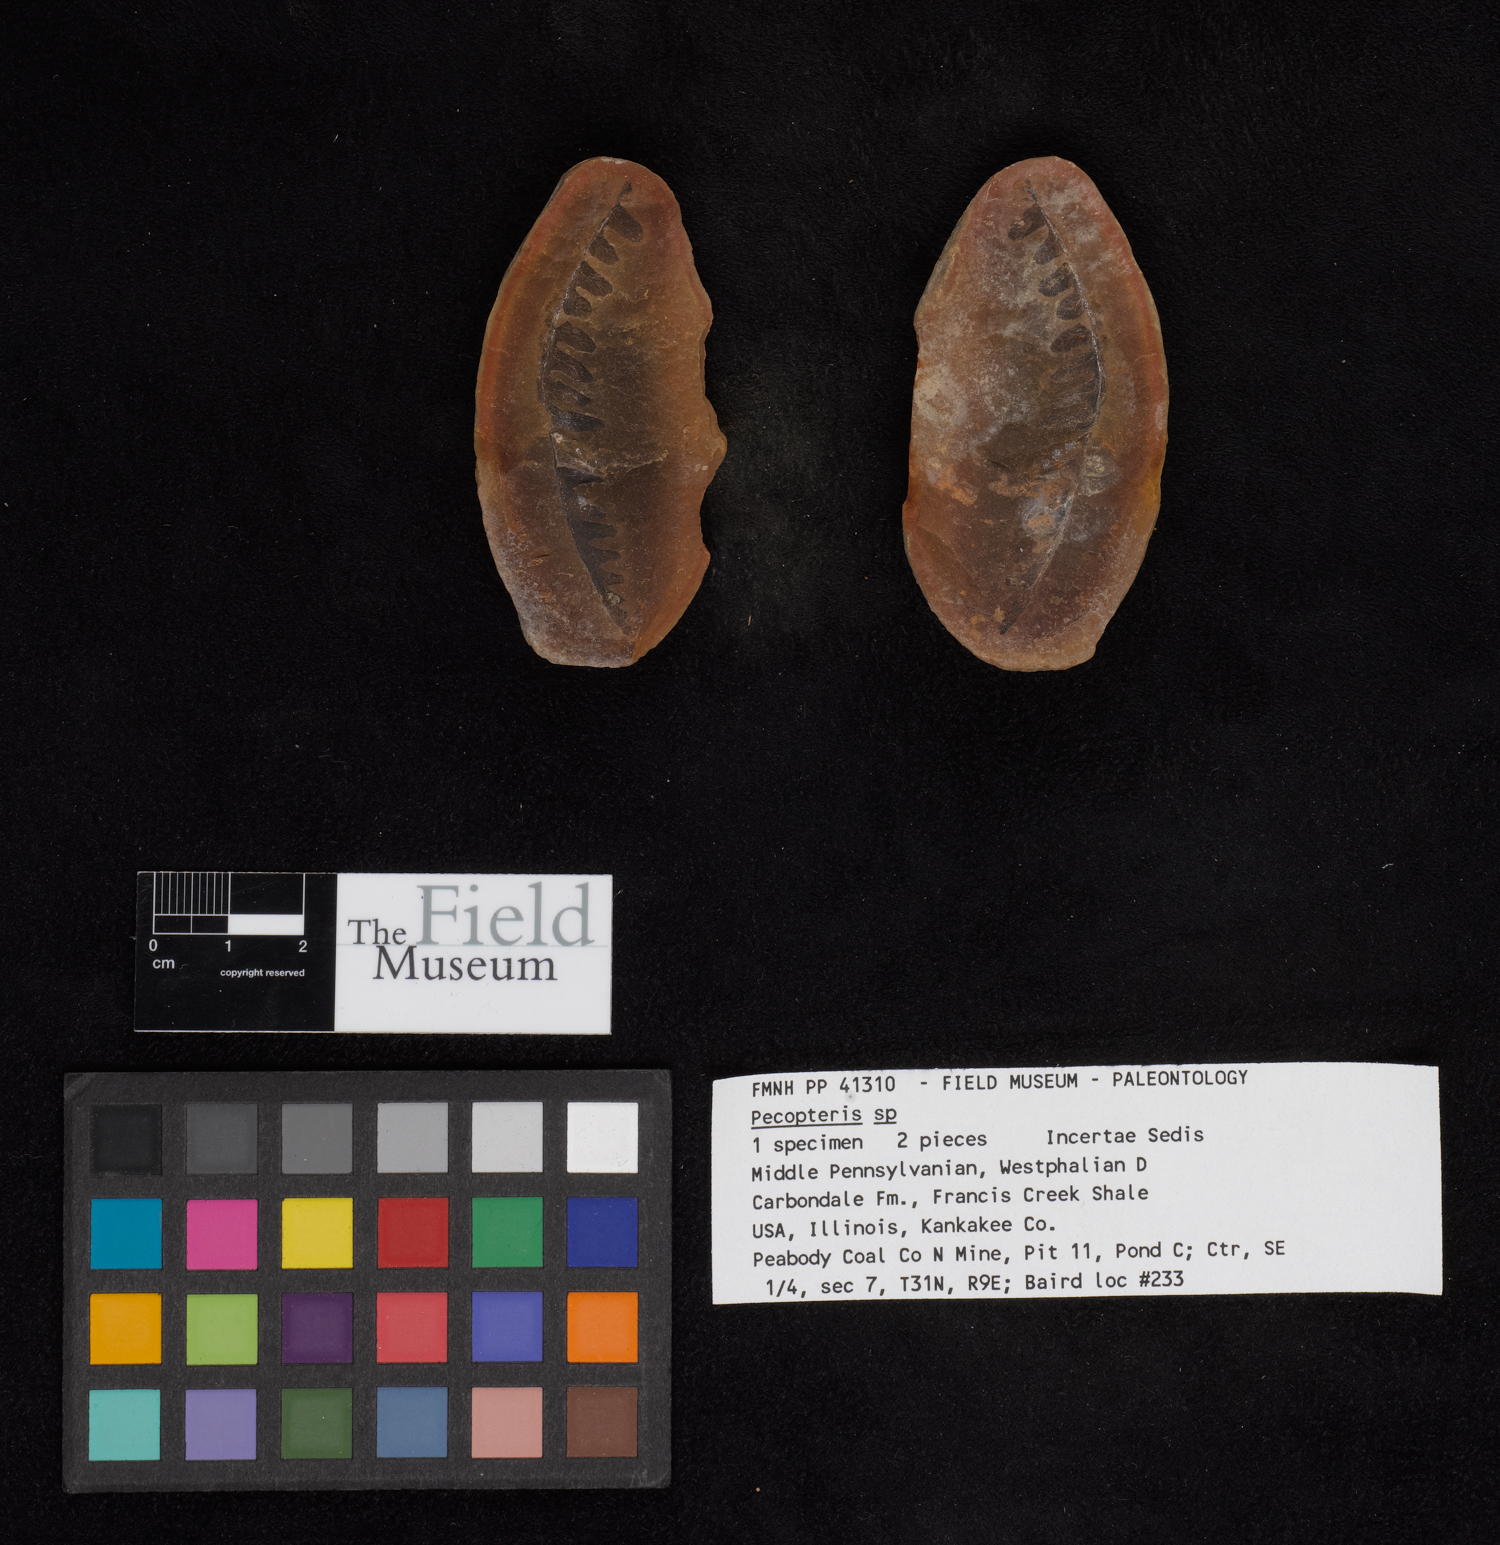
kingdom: Plantae
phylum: Tracheophyta
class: Polypodiopsida
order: Marattiales
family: Asterothecaceae
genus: Pecopteris
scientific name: Pecopteris
